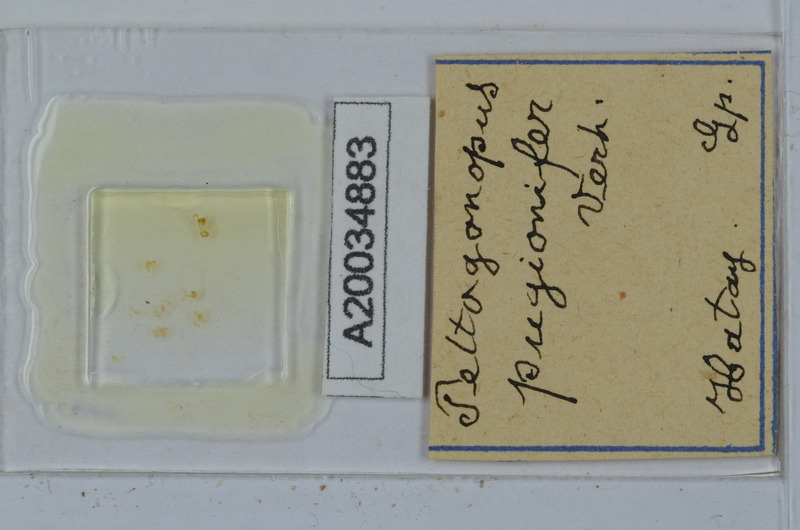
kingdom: Animalia
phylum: Arthropoda
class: Diplopoda
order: Polydesmida
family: Polydesmidae
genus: Peltogonopus
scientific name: Peltogonopus
